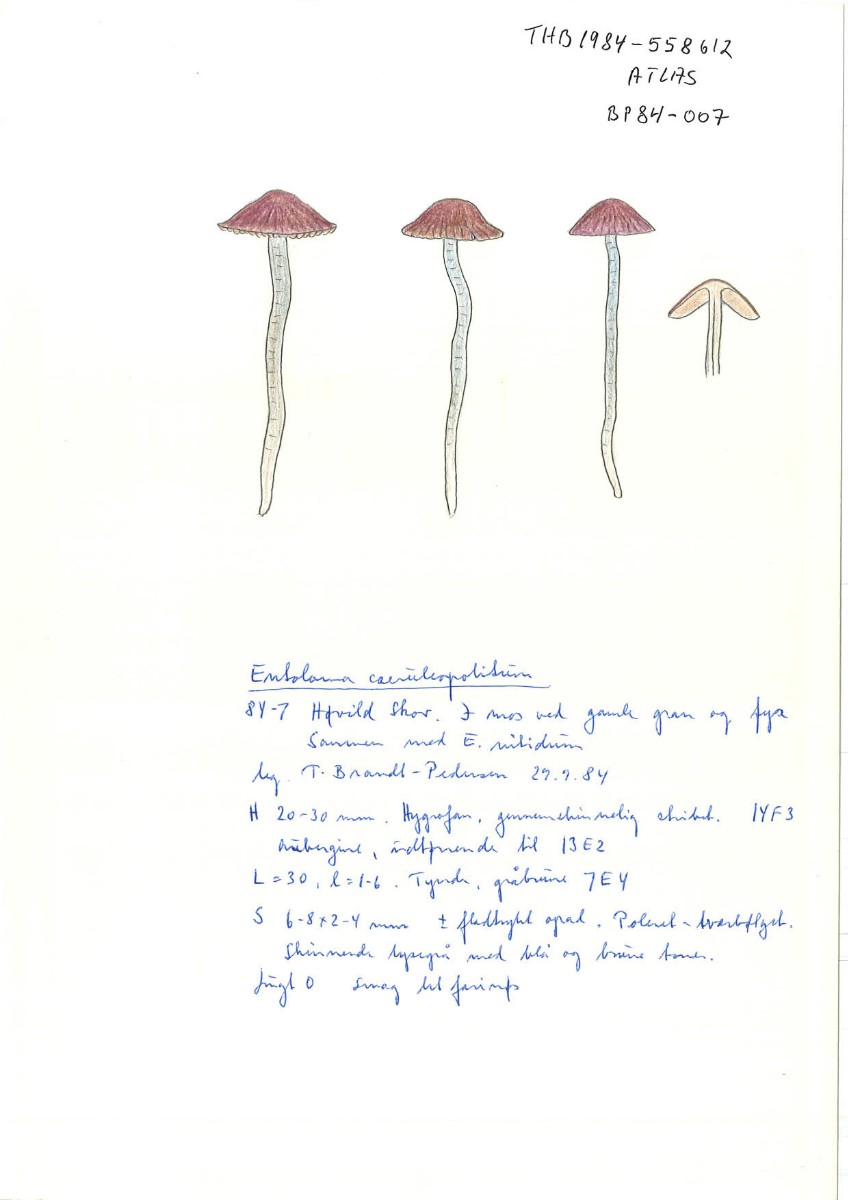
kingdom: Fungi
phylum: Basidiomycota
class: Agaricomycetes
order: Agaricales
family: Entolomataceae
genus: Entoloma
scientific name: Entoloma caeruleopolitum
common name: blåpoleret rødblad
